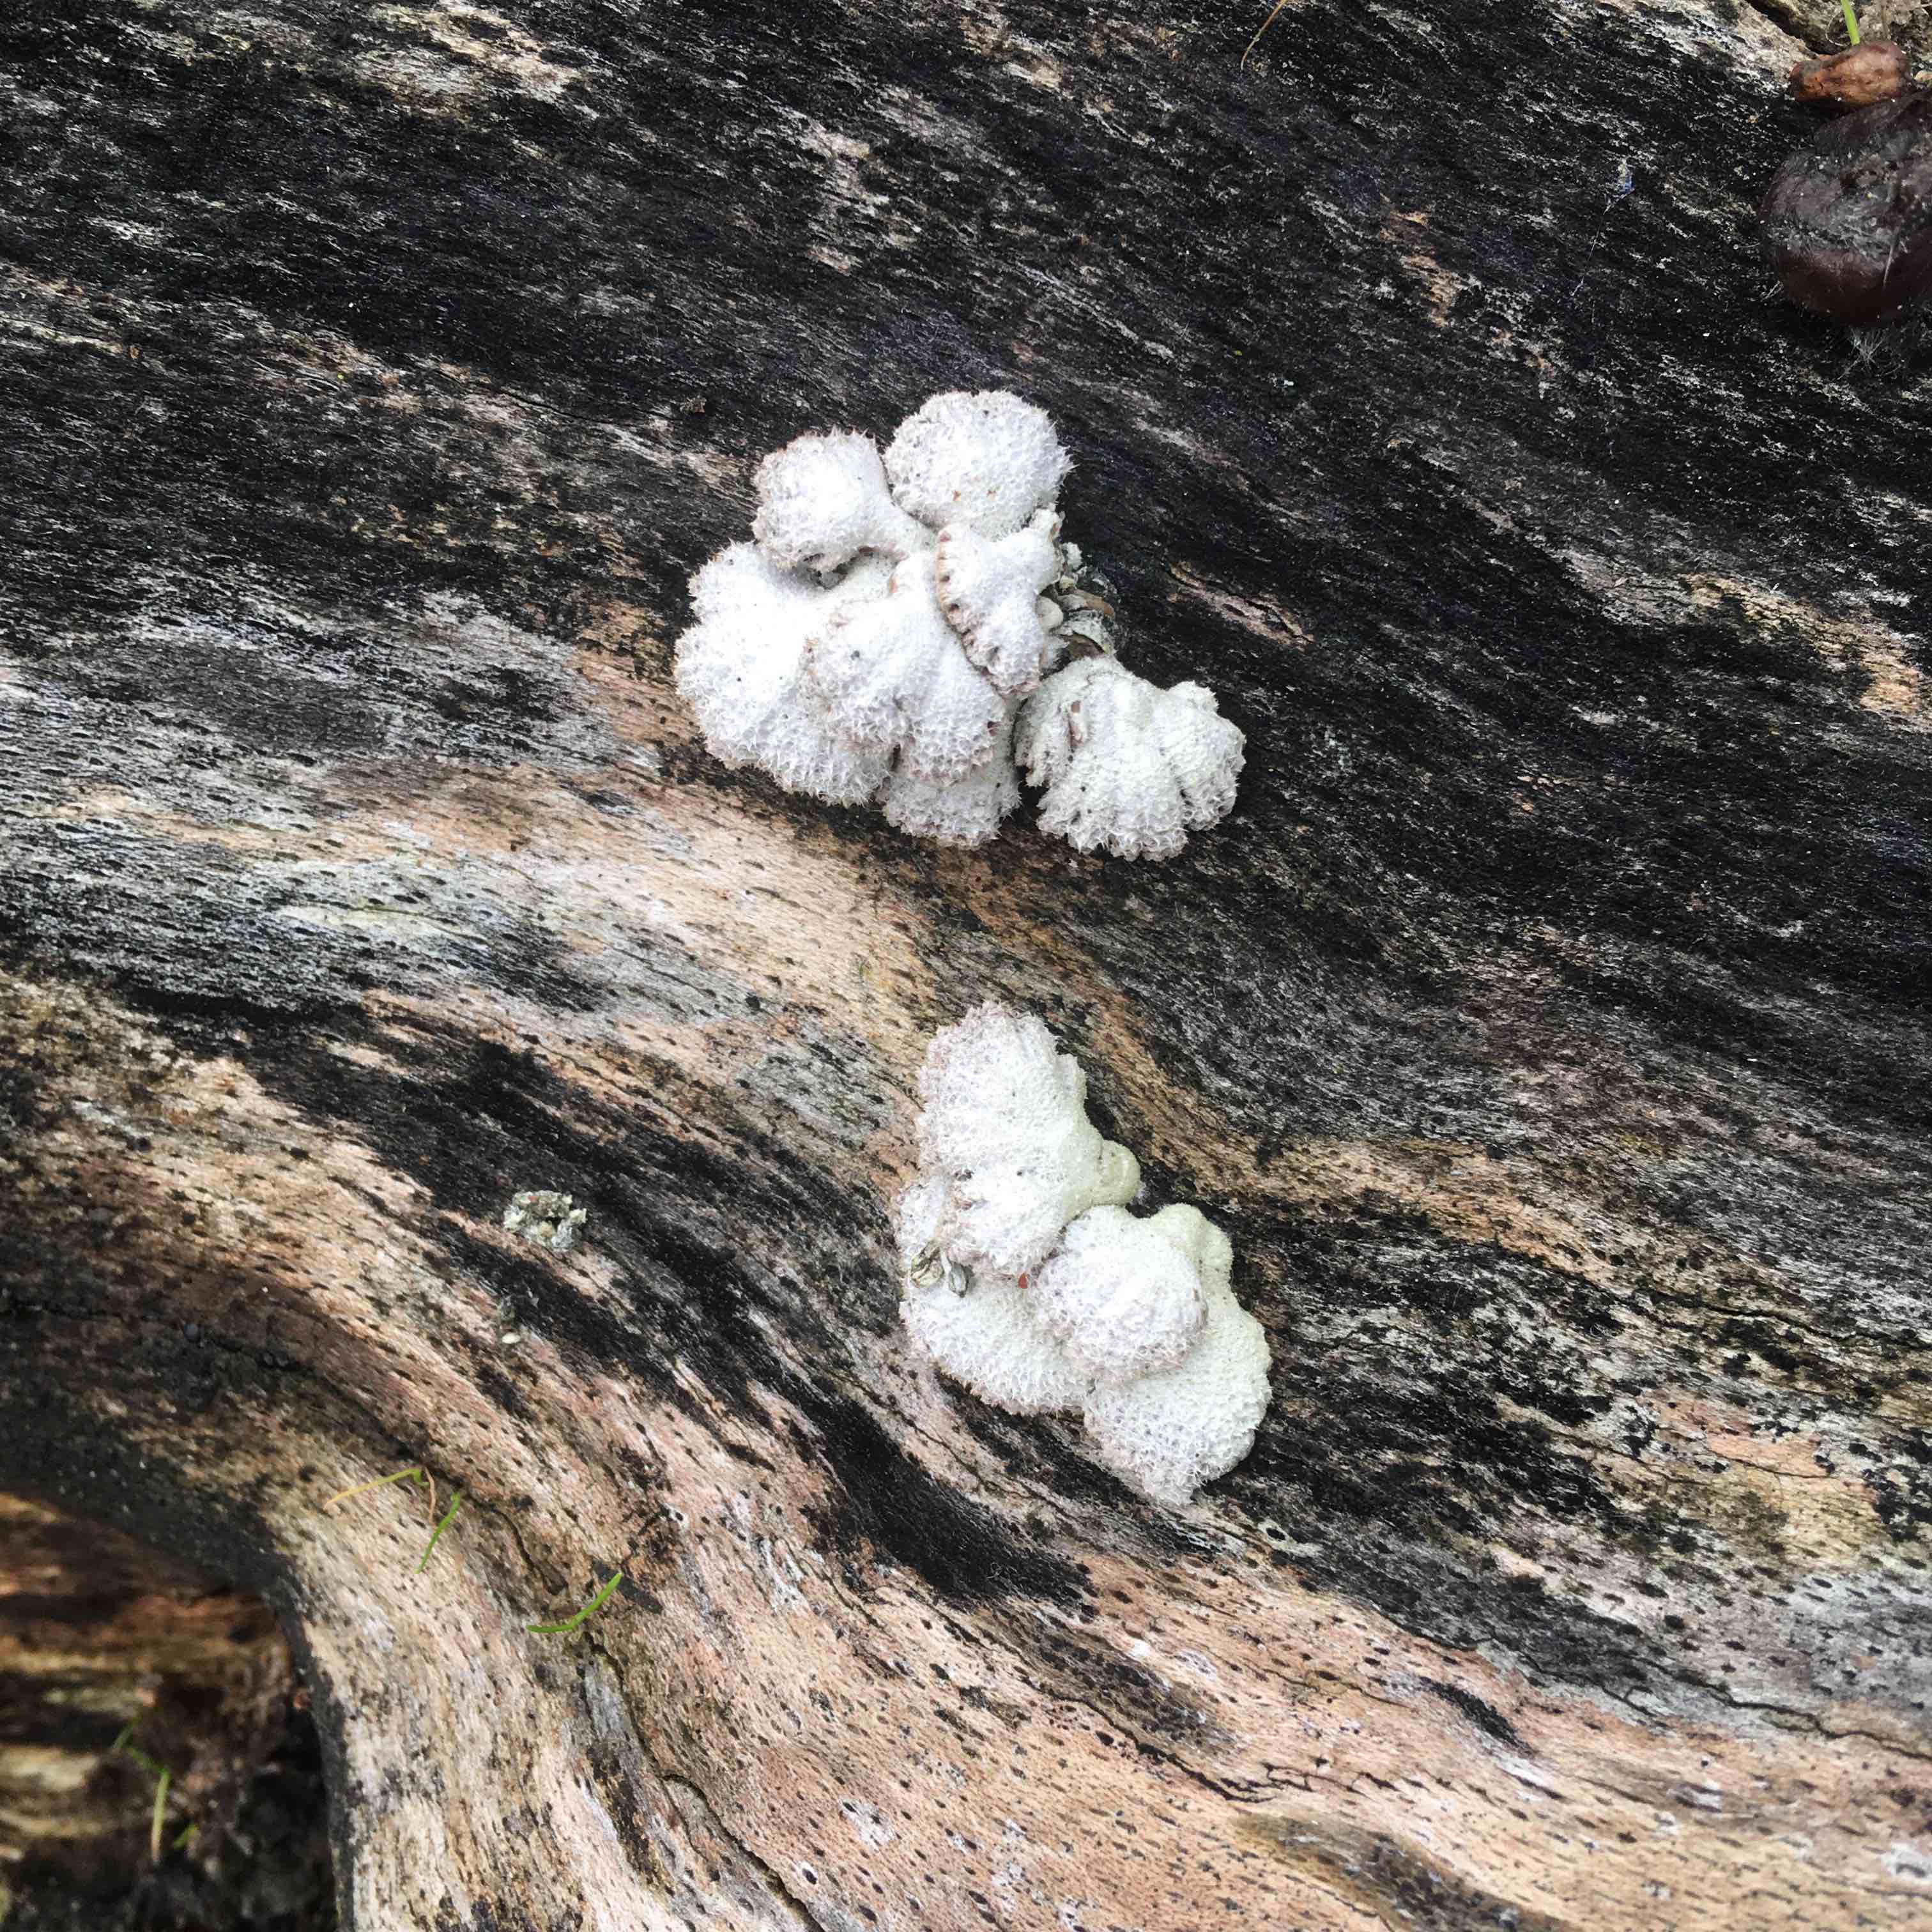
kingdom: Fungi
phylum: Basidiomycota
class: Agaricomycetes
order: Agaricales
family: Schizophyllaceae
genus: Schizophyllum
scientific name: Schizophyllum commune
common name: kløvblad
